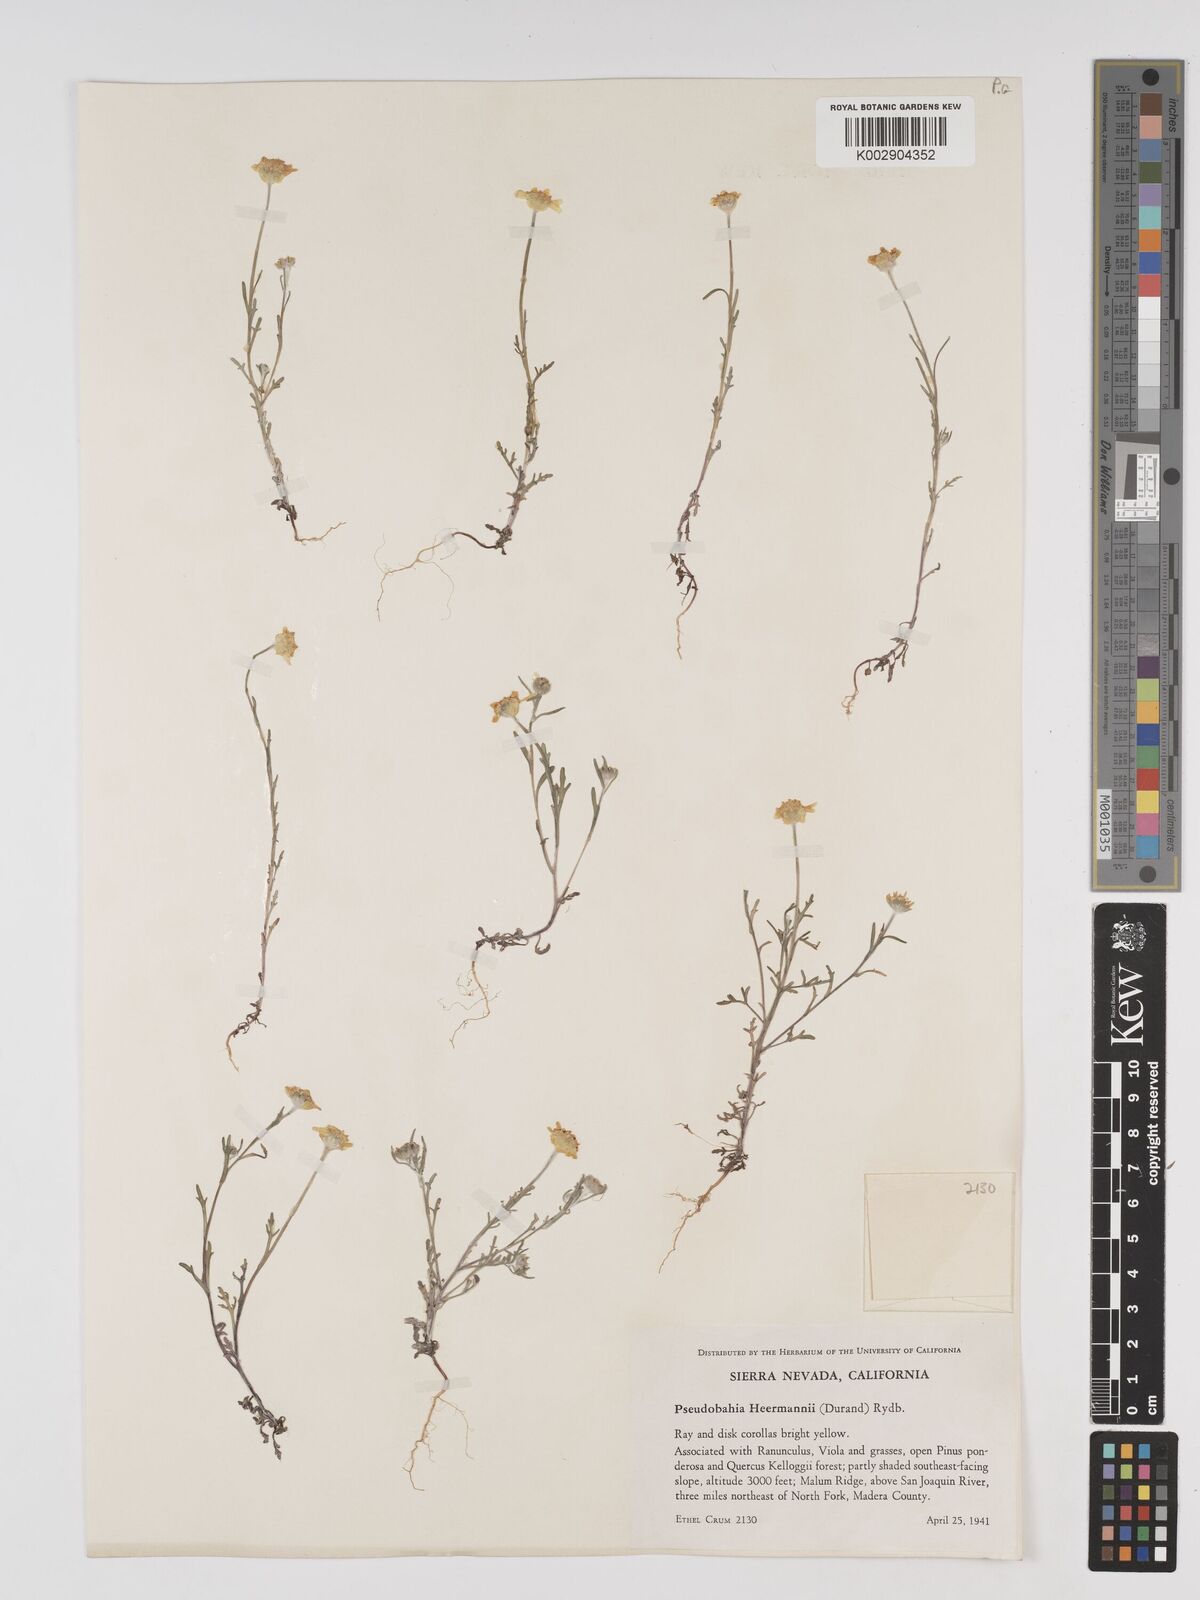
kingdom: Plantae
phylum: Tracheophyta
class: Magnoliopsida
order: Asterales
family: Asteraceae
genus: Eriophyllum
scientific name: Eriophyllum jepsonii
